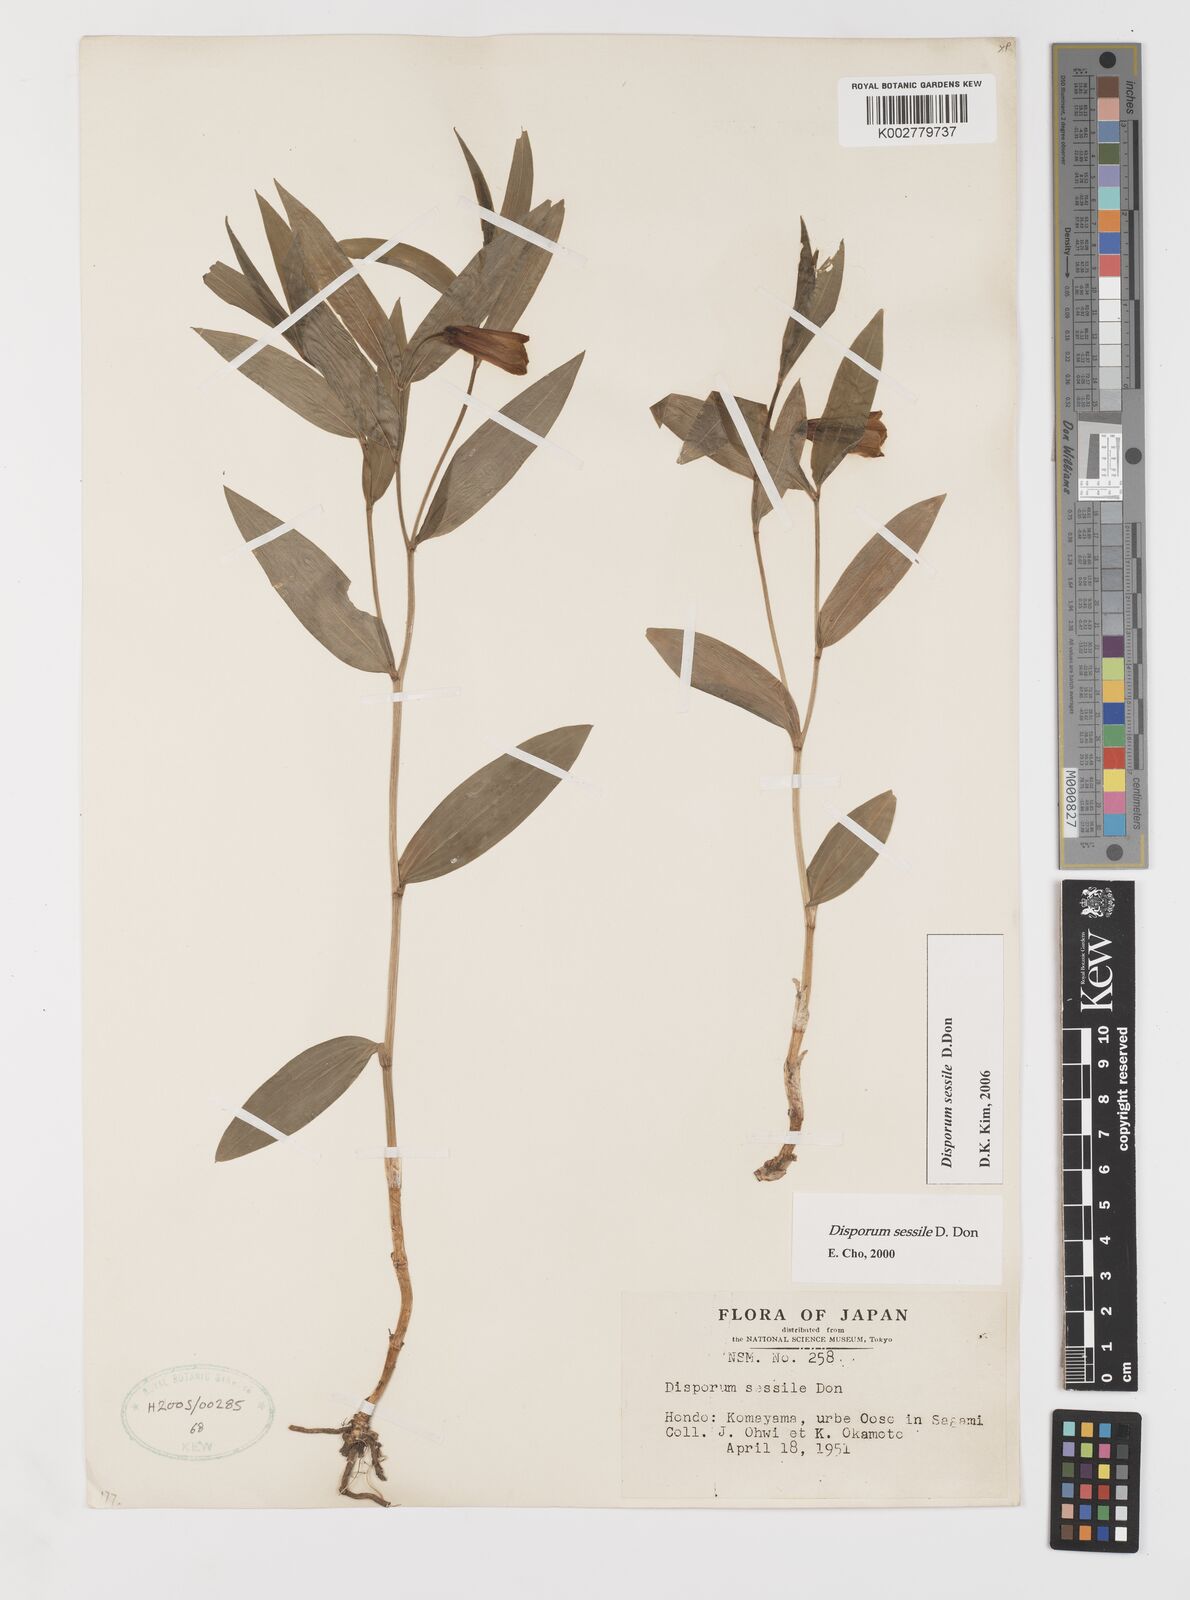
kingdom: Plantae
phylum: Tracheophyta
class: Liliopsida
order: Liliales
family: Colchicaceae
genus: Disporum
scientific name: Disporum sessile
